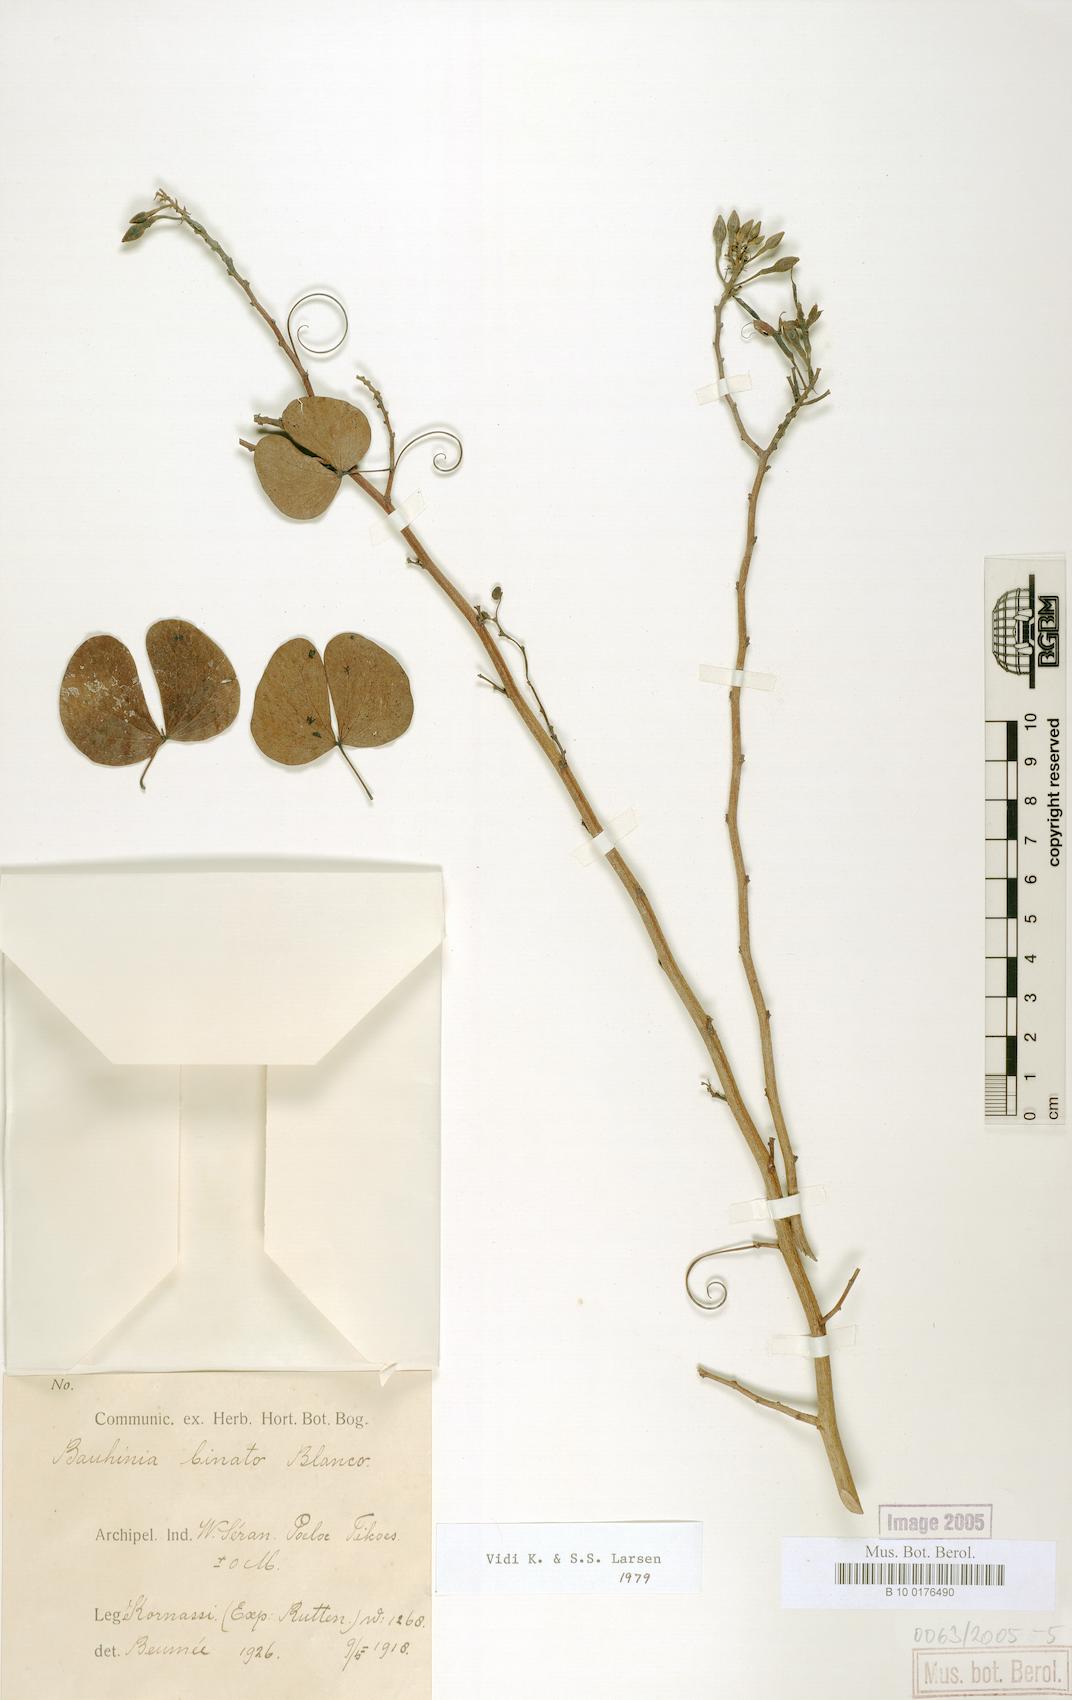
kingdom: Plantae
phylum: Tracheophyta
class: Magnoliopsida
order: Fabales
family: Fabaceae
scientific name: Fabaceae
